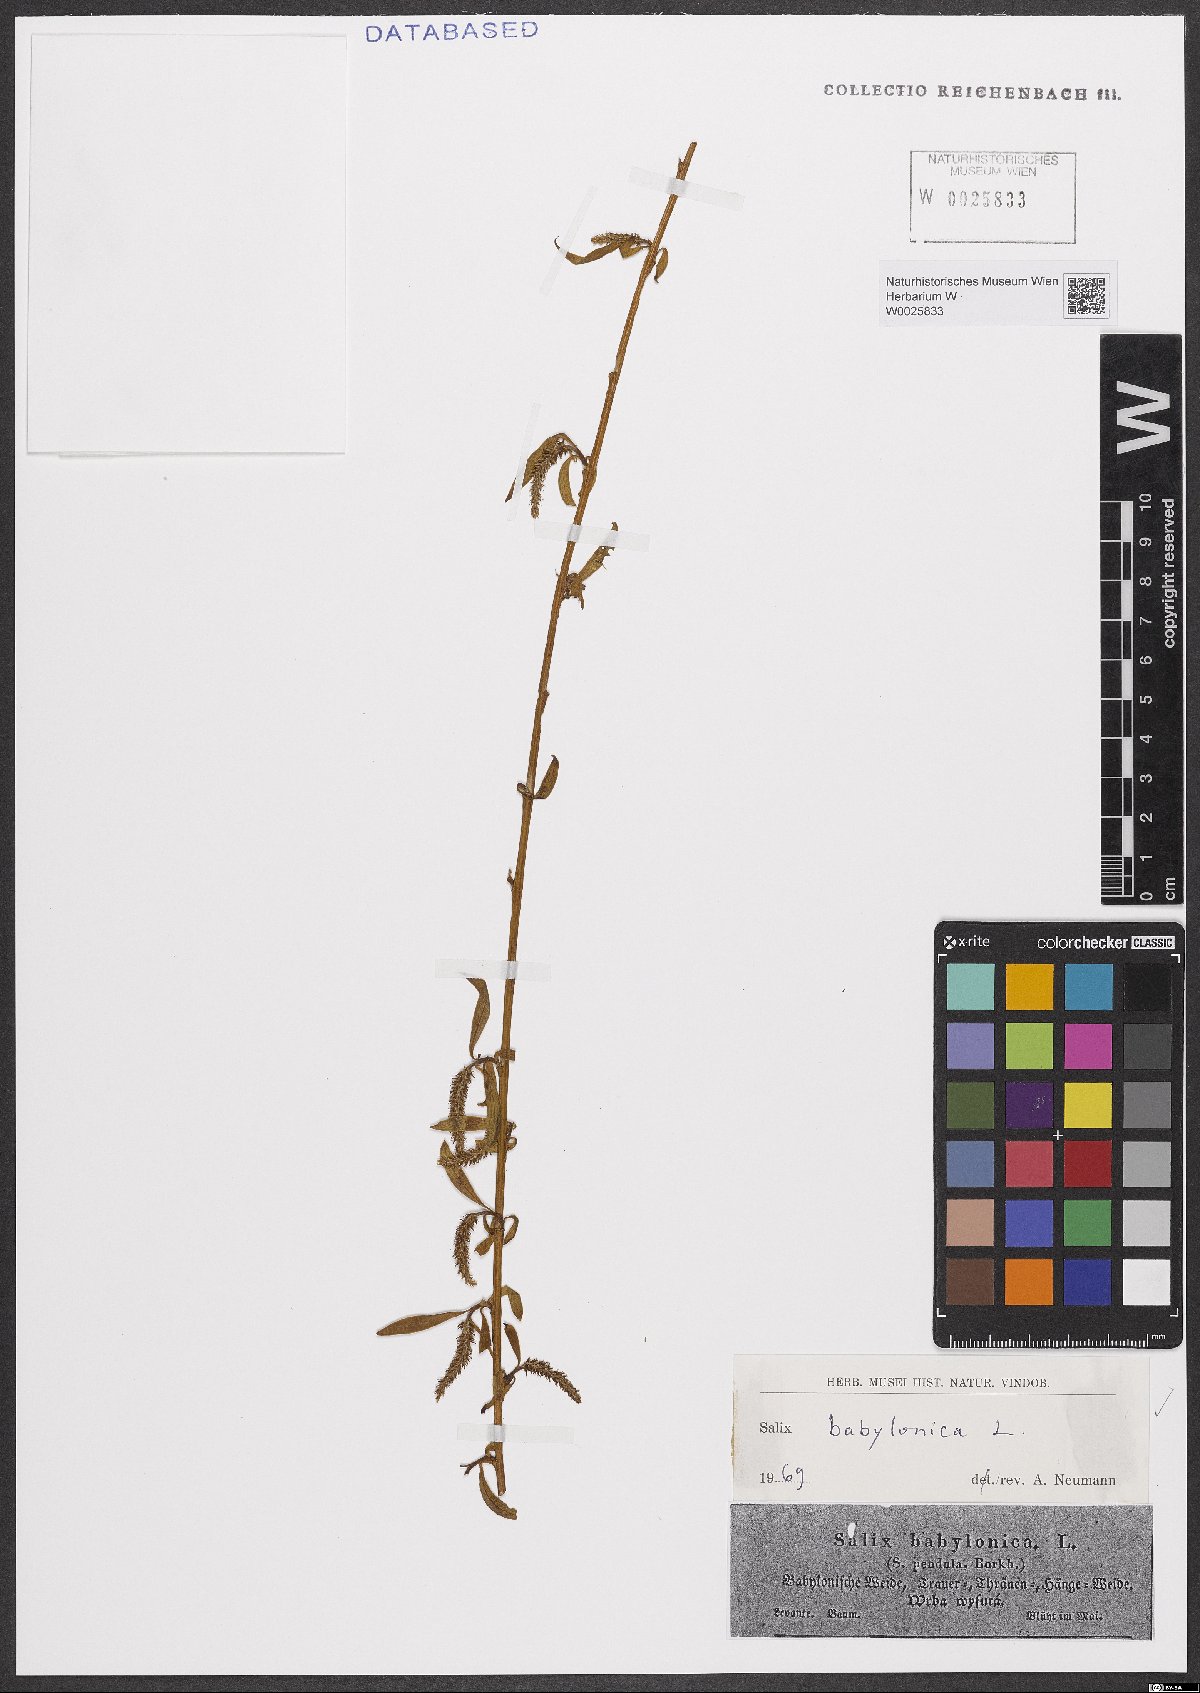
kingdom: Plantae
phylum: Tracheophyta
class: Magnoliopsida
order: Malpighiales
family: Salicaceae
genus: Salix
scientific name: Salix babylonica
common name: Weeping willow
